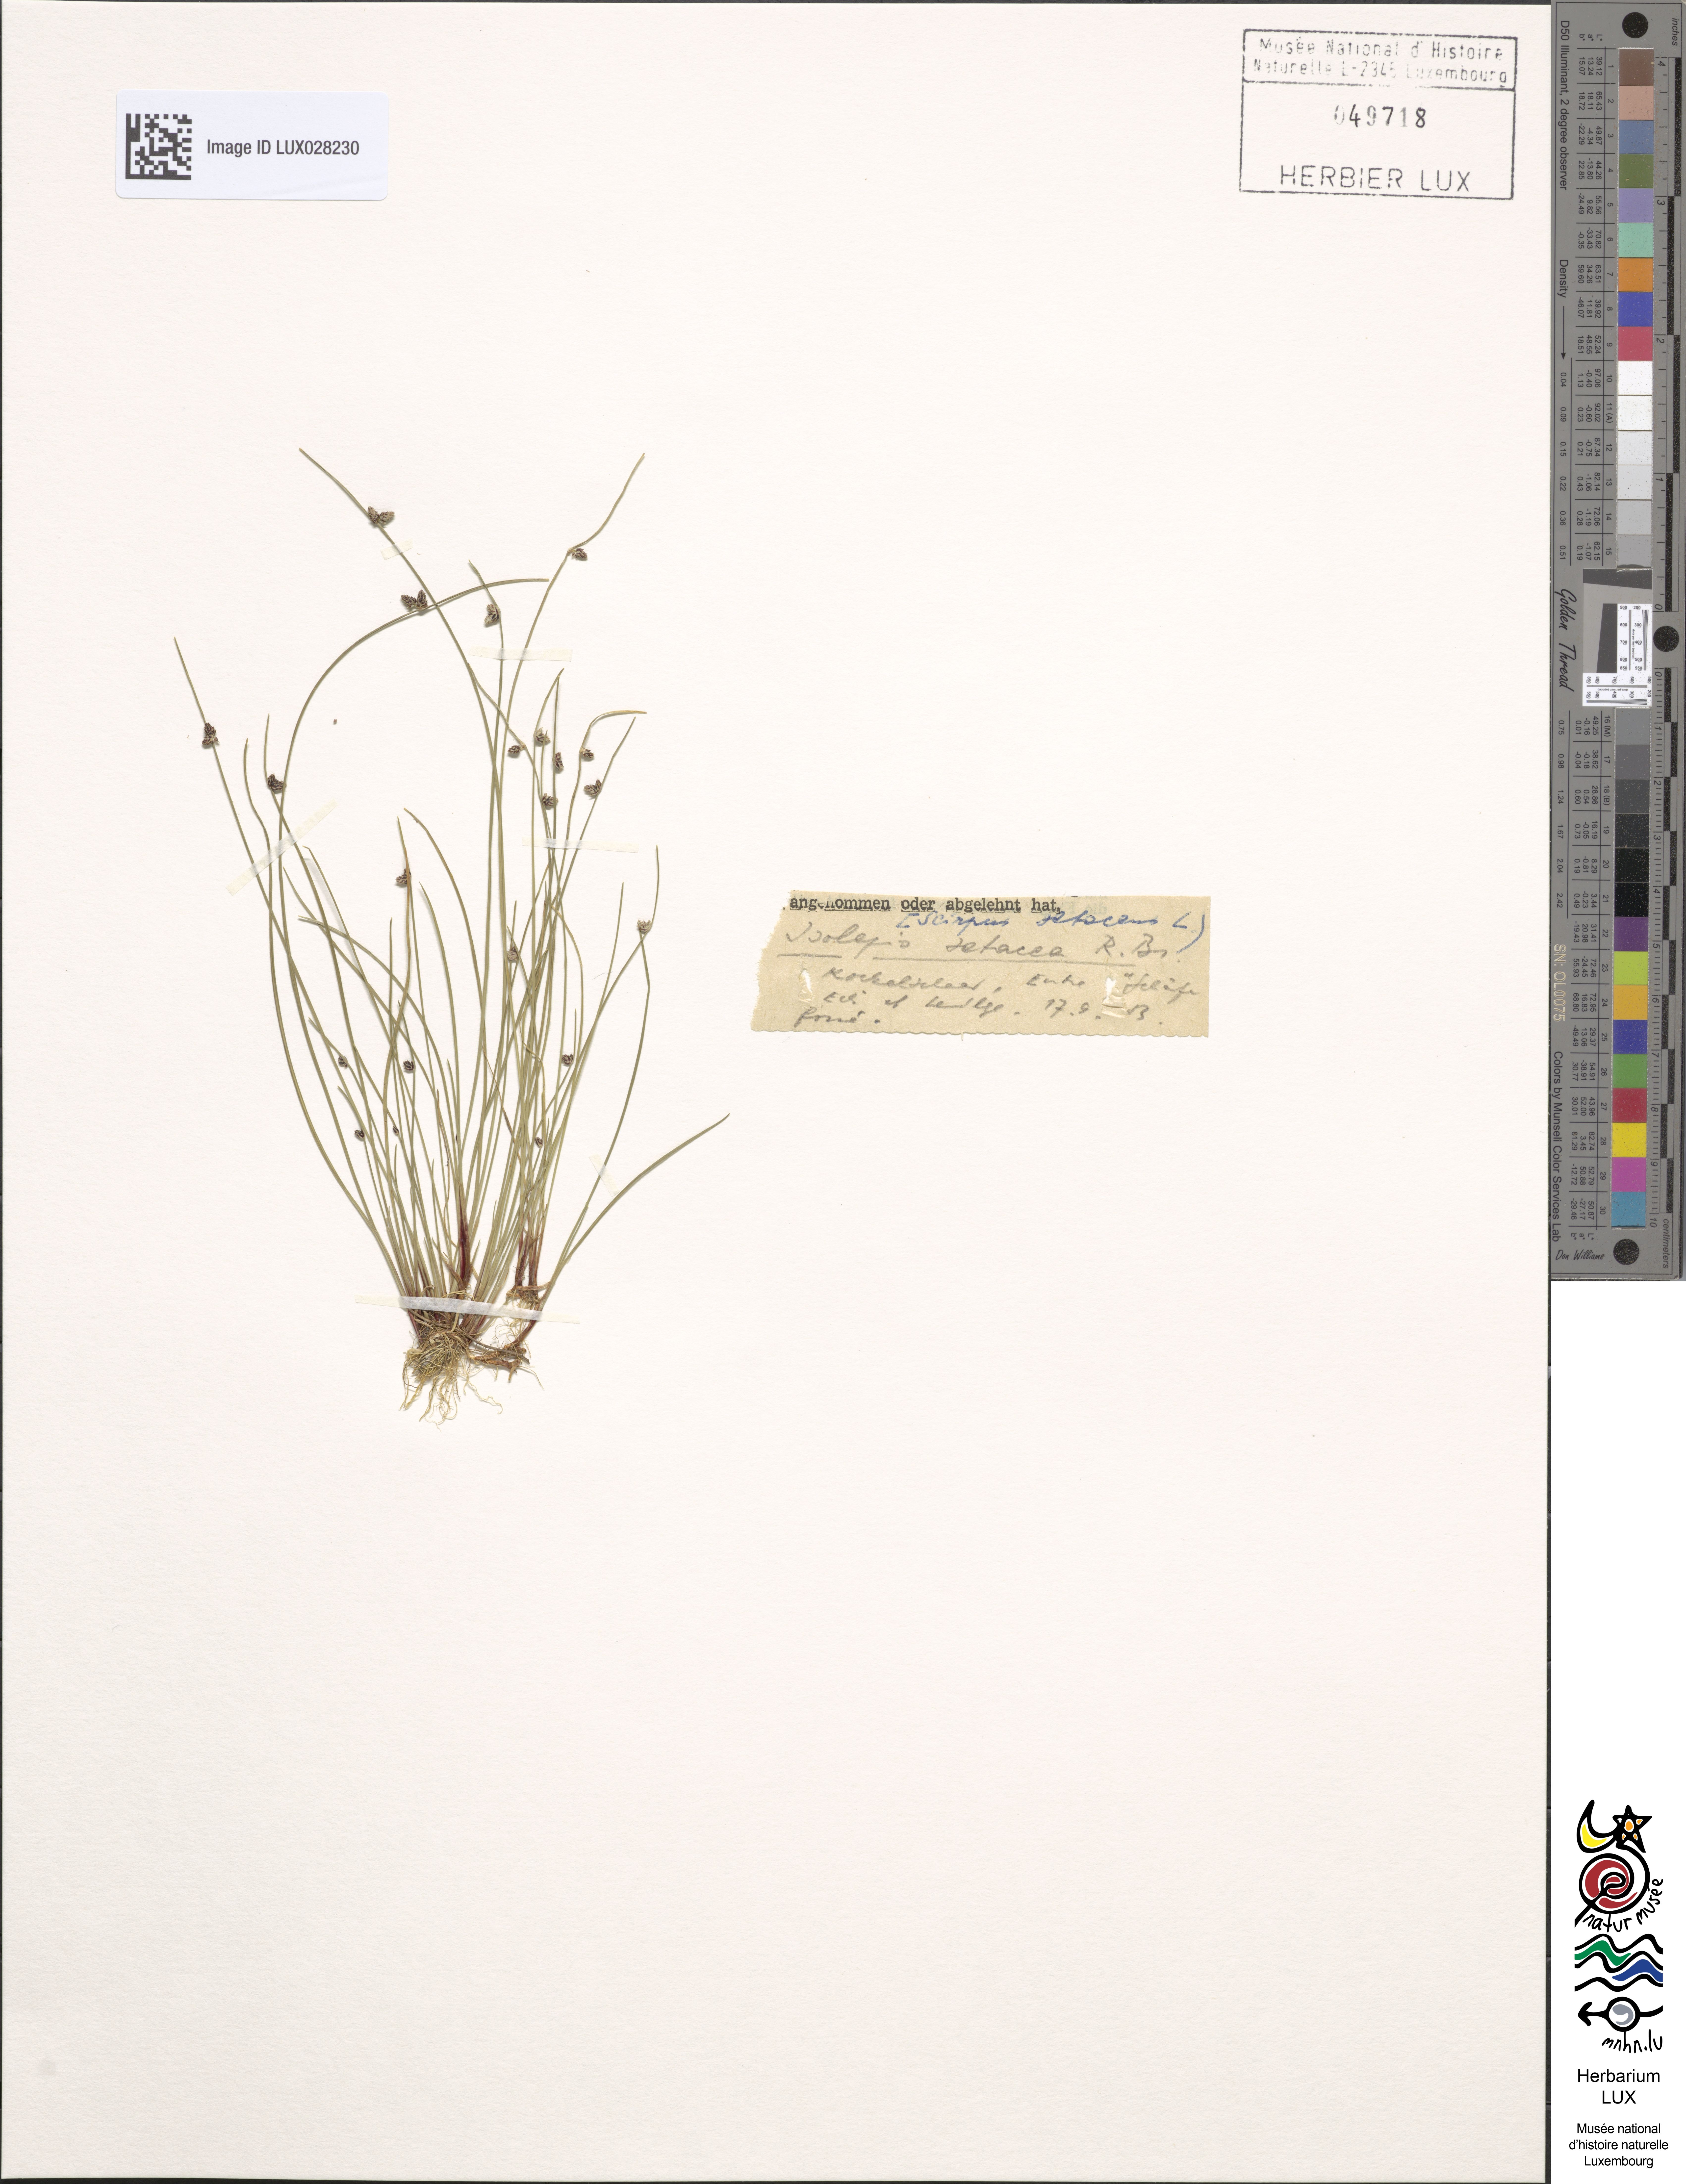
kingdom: Plantae
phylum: Tracheophyta
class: Liliopsida
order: Poales
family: Cyperaceae
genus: Isolepis
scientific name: Isolepis setacea
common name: Bristle club-rush
